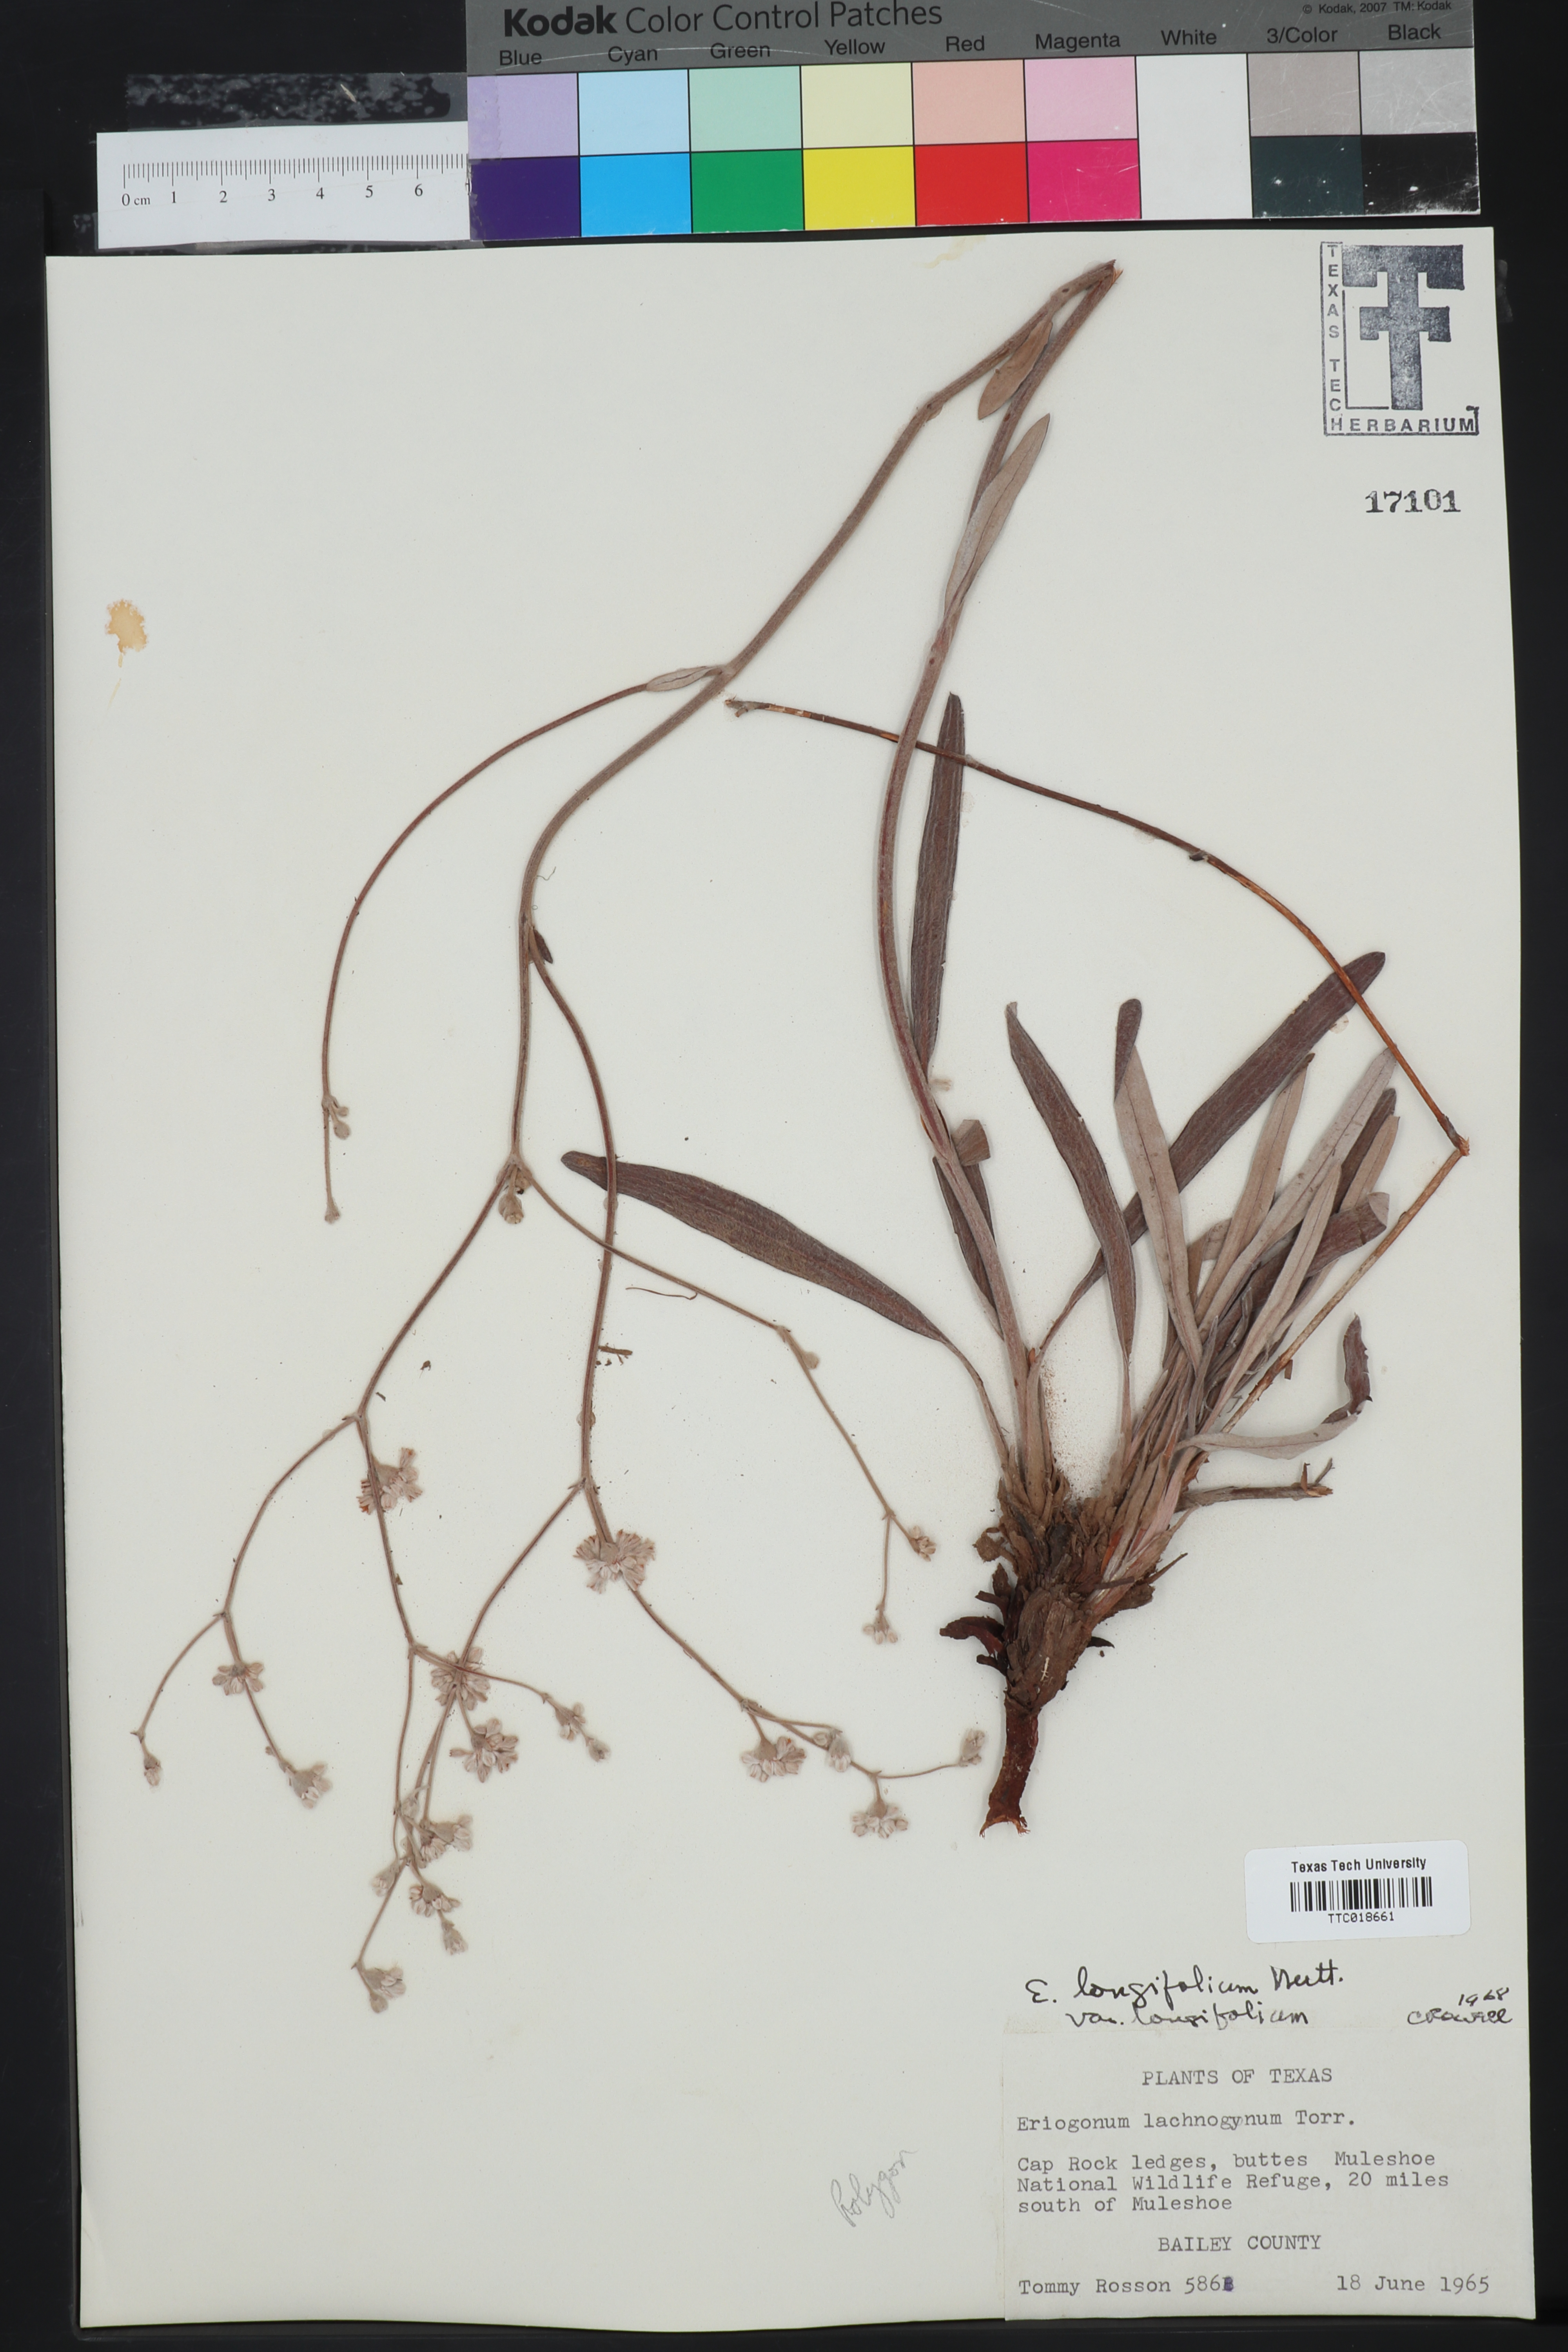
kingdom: Plantae
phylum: Tracheophyta
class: Magnoliopsida
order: Caryophyllales
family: Polygonaceae
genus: Eriogonum
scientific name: Eriogonum longifolium
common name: Longleaf wild buckwheat
